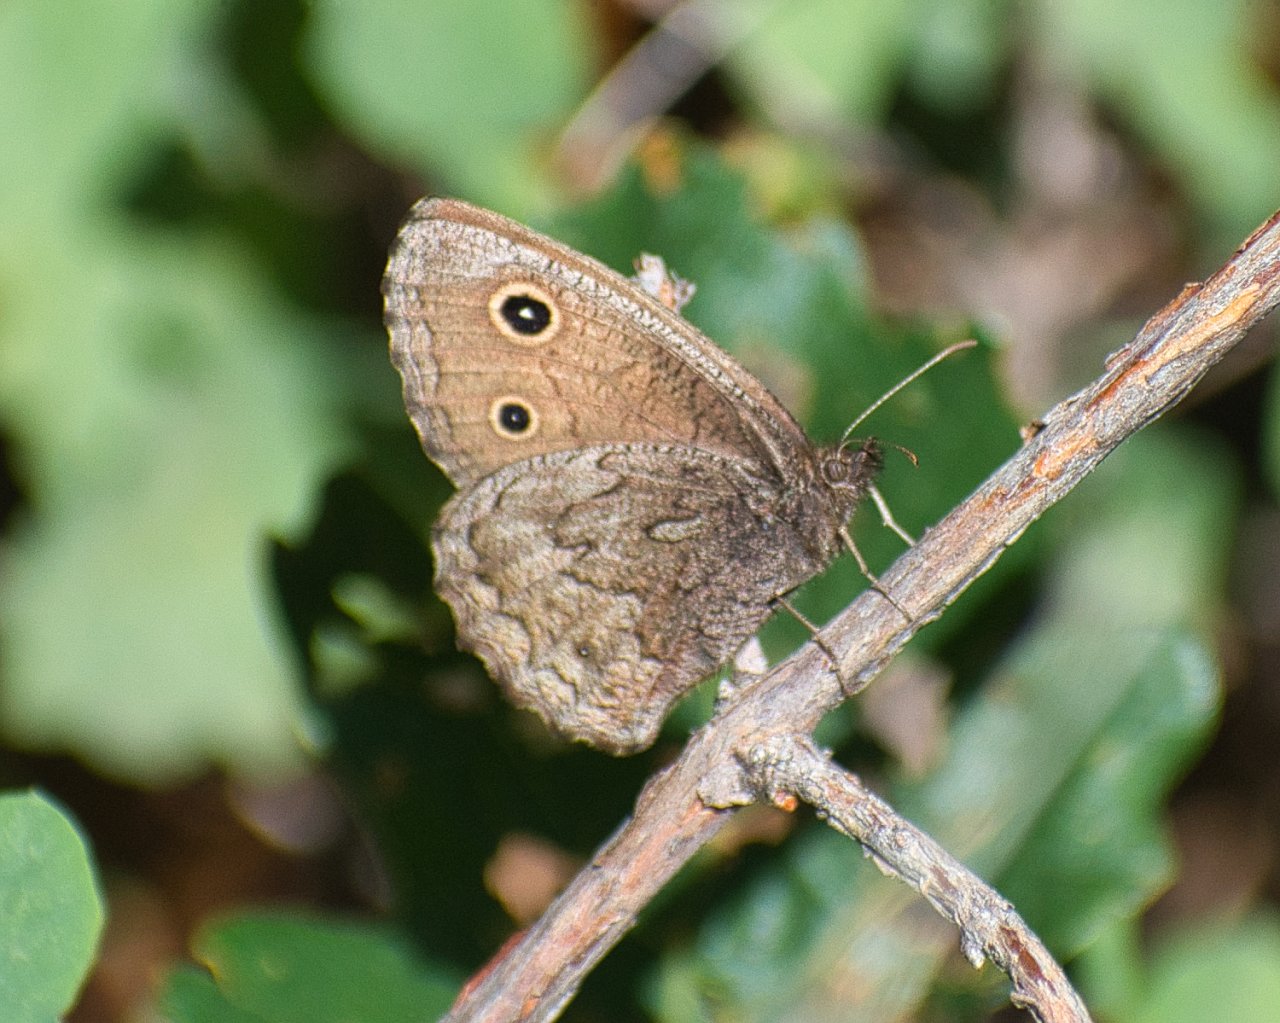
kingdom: Animalia
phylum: Arthropoda
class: Insecta
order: Lepidoptera
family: Nymphalidae
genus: Cercyonis
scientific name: Cercyonis oetus
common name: Small Wood-Nymph
